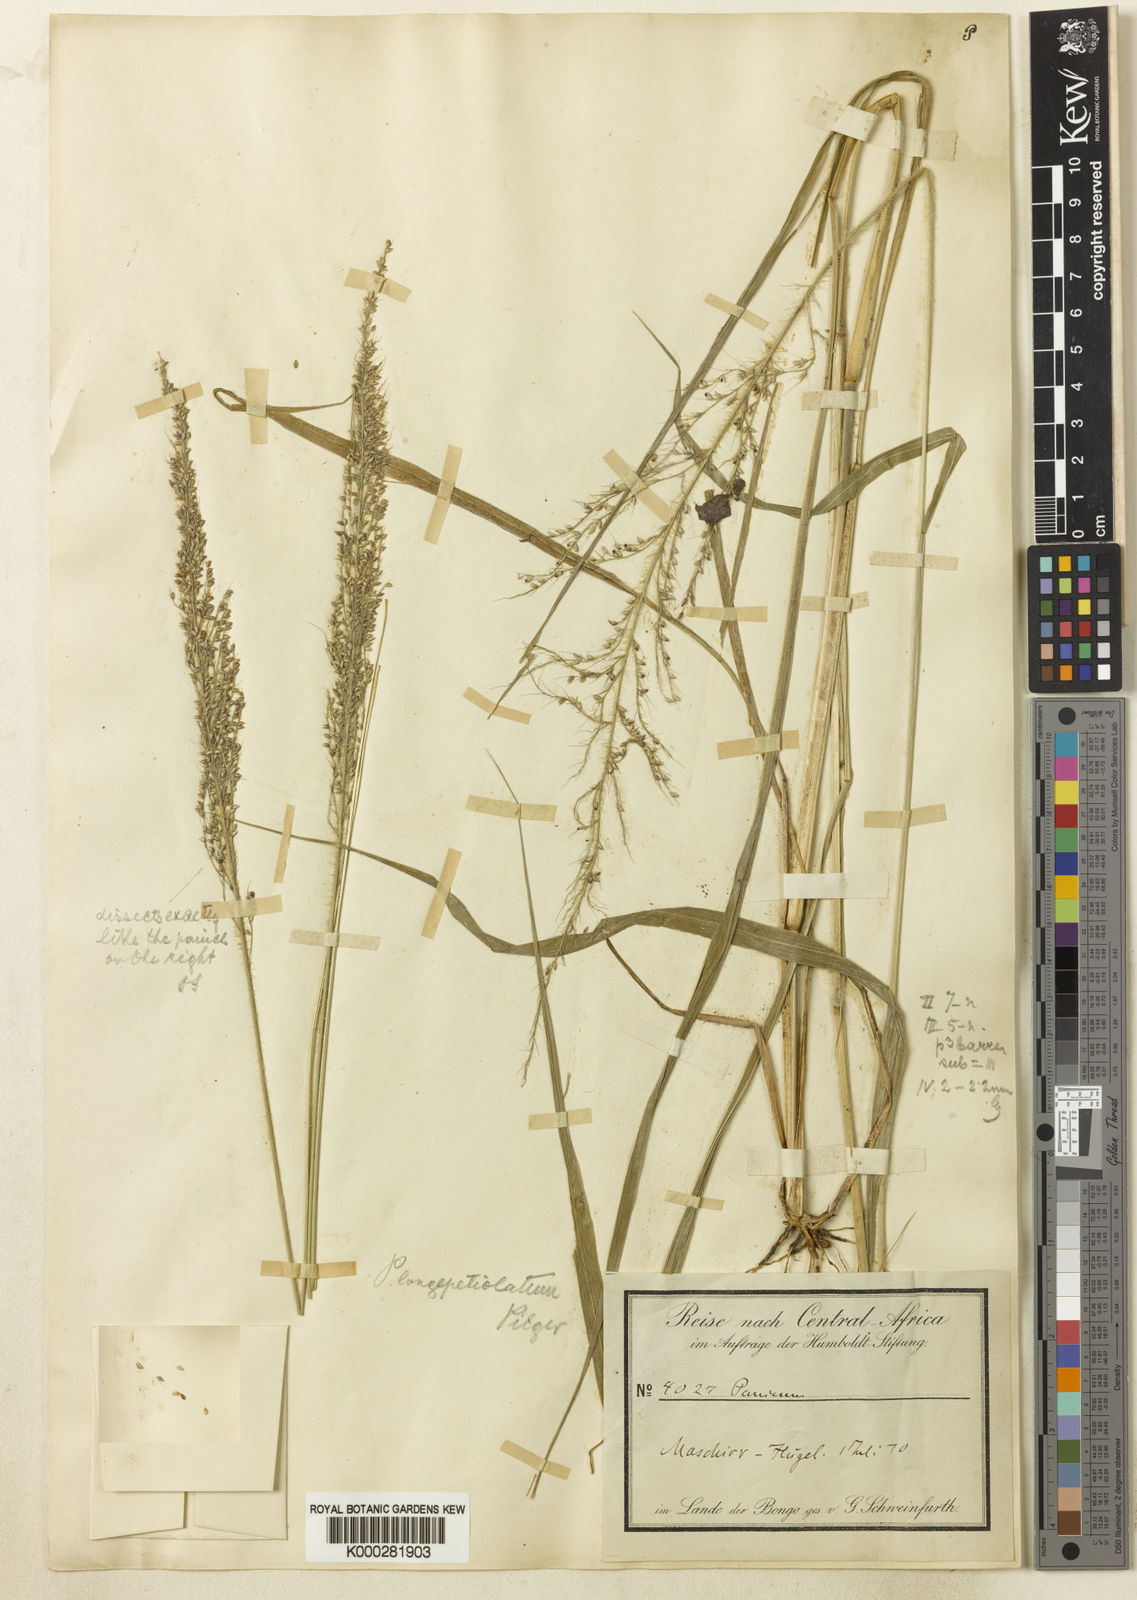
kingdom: Plantae
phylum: Tracheophyta
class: Liliopsida
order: Poales
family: Poaceae
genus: Setaria
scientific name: Setaria longiseta
